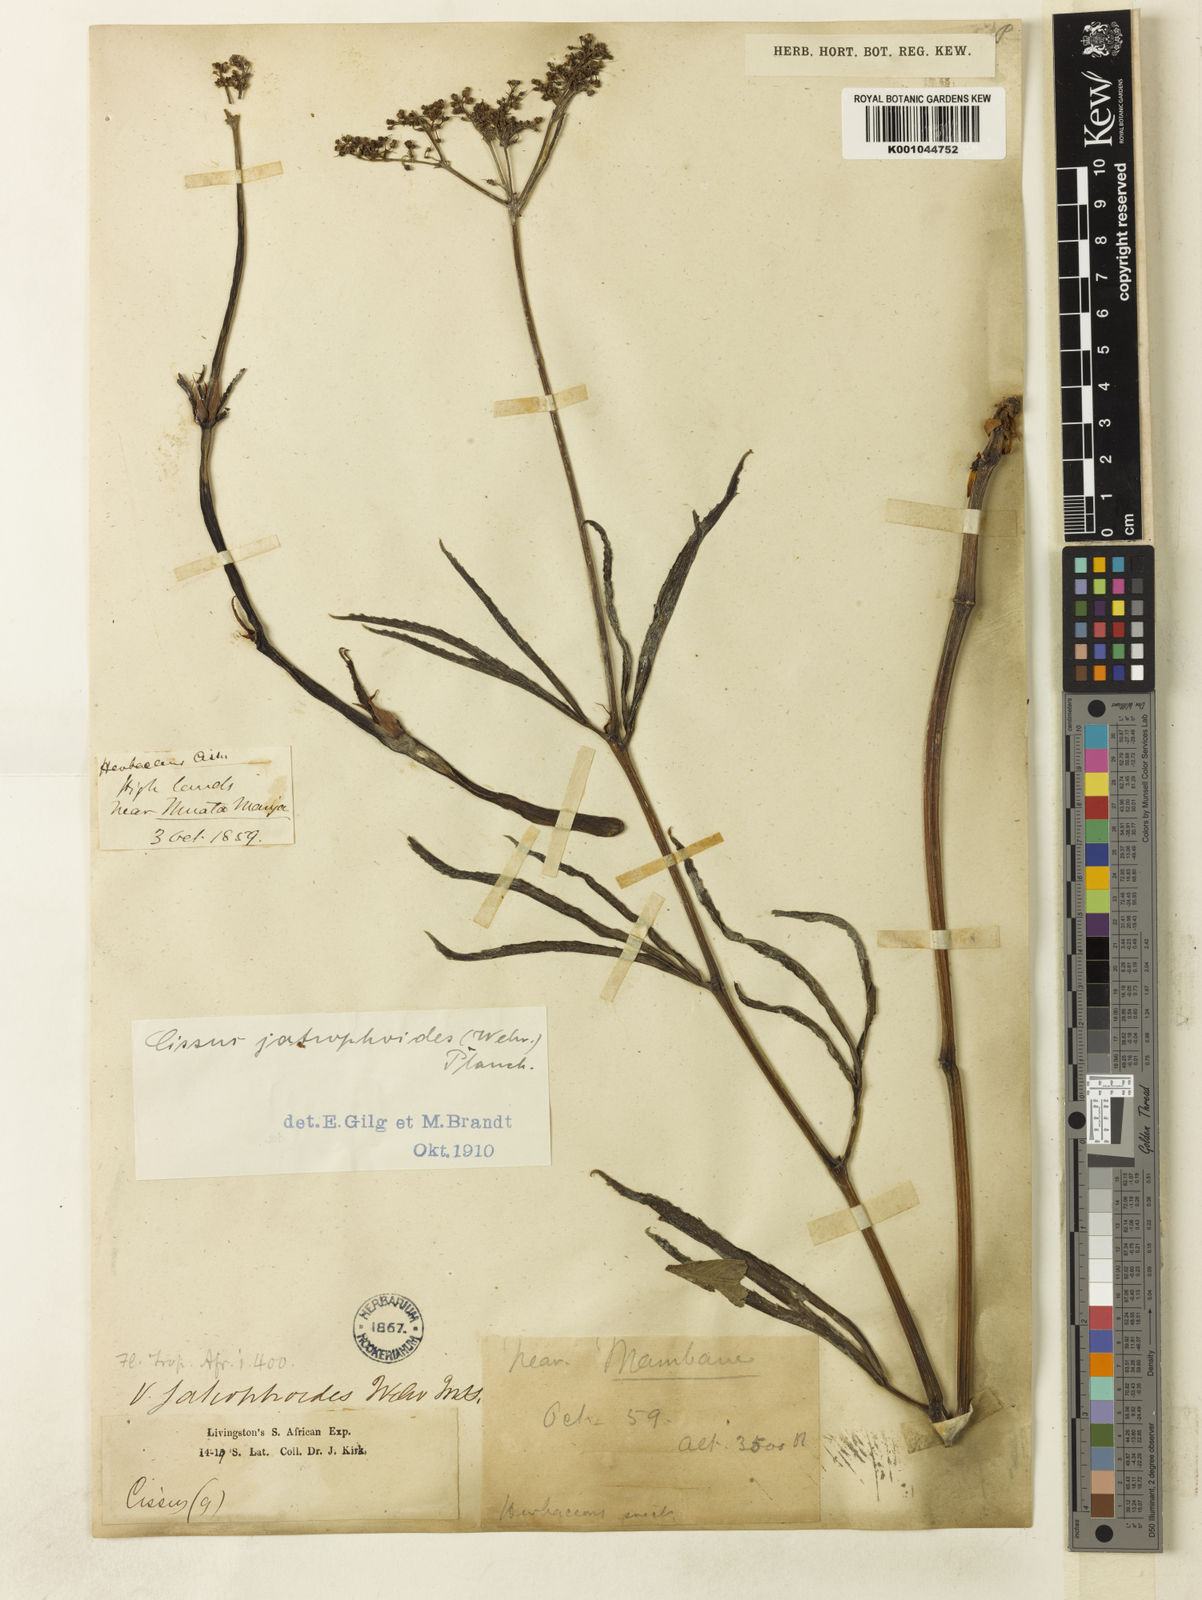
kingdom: Plantae
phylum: Tracheophyta
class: Magnoliopsida
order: Vitales
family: Vitaceae
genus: Cyphostemma
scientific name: Cyphostemma
